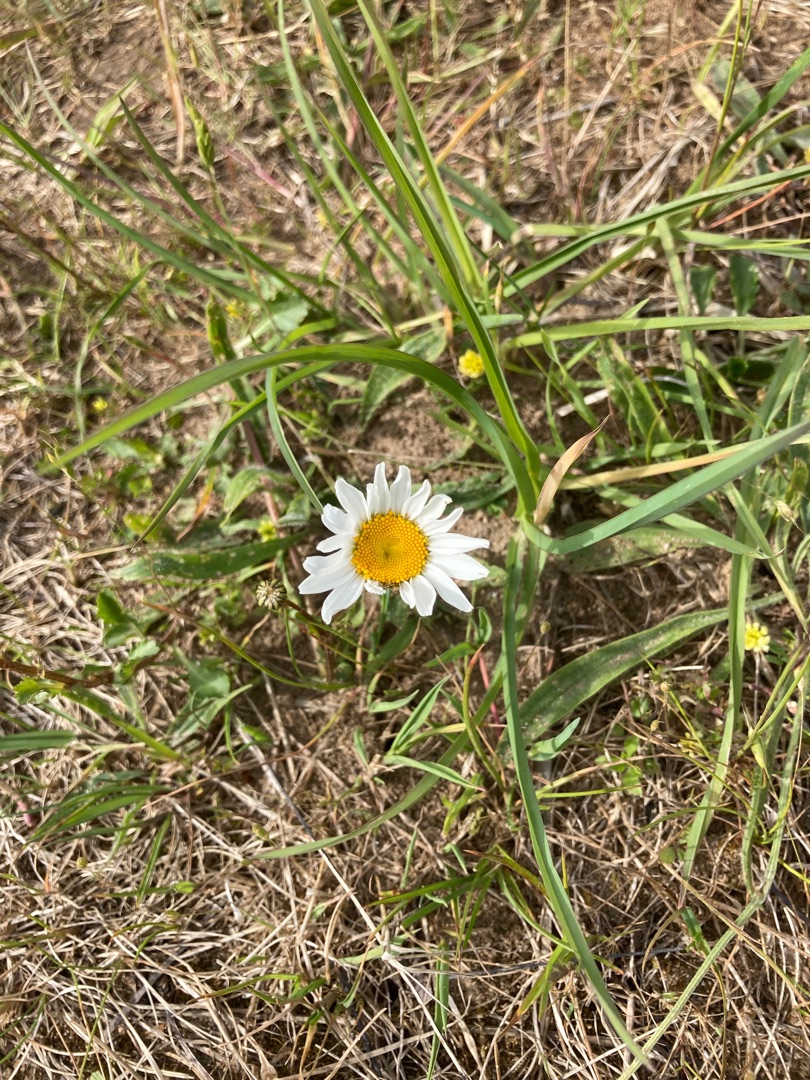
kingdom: Plantae
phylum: Tracheophyta
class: Magnoliopsida
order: Asterales
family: Asteraceae
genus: Leucanthemum
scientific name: Leucanthemum vulgare
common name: Hvid okseøje
